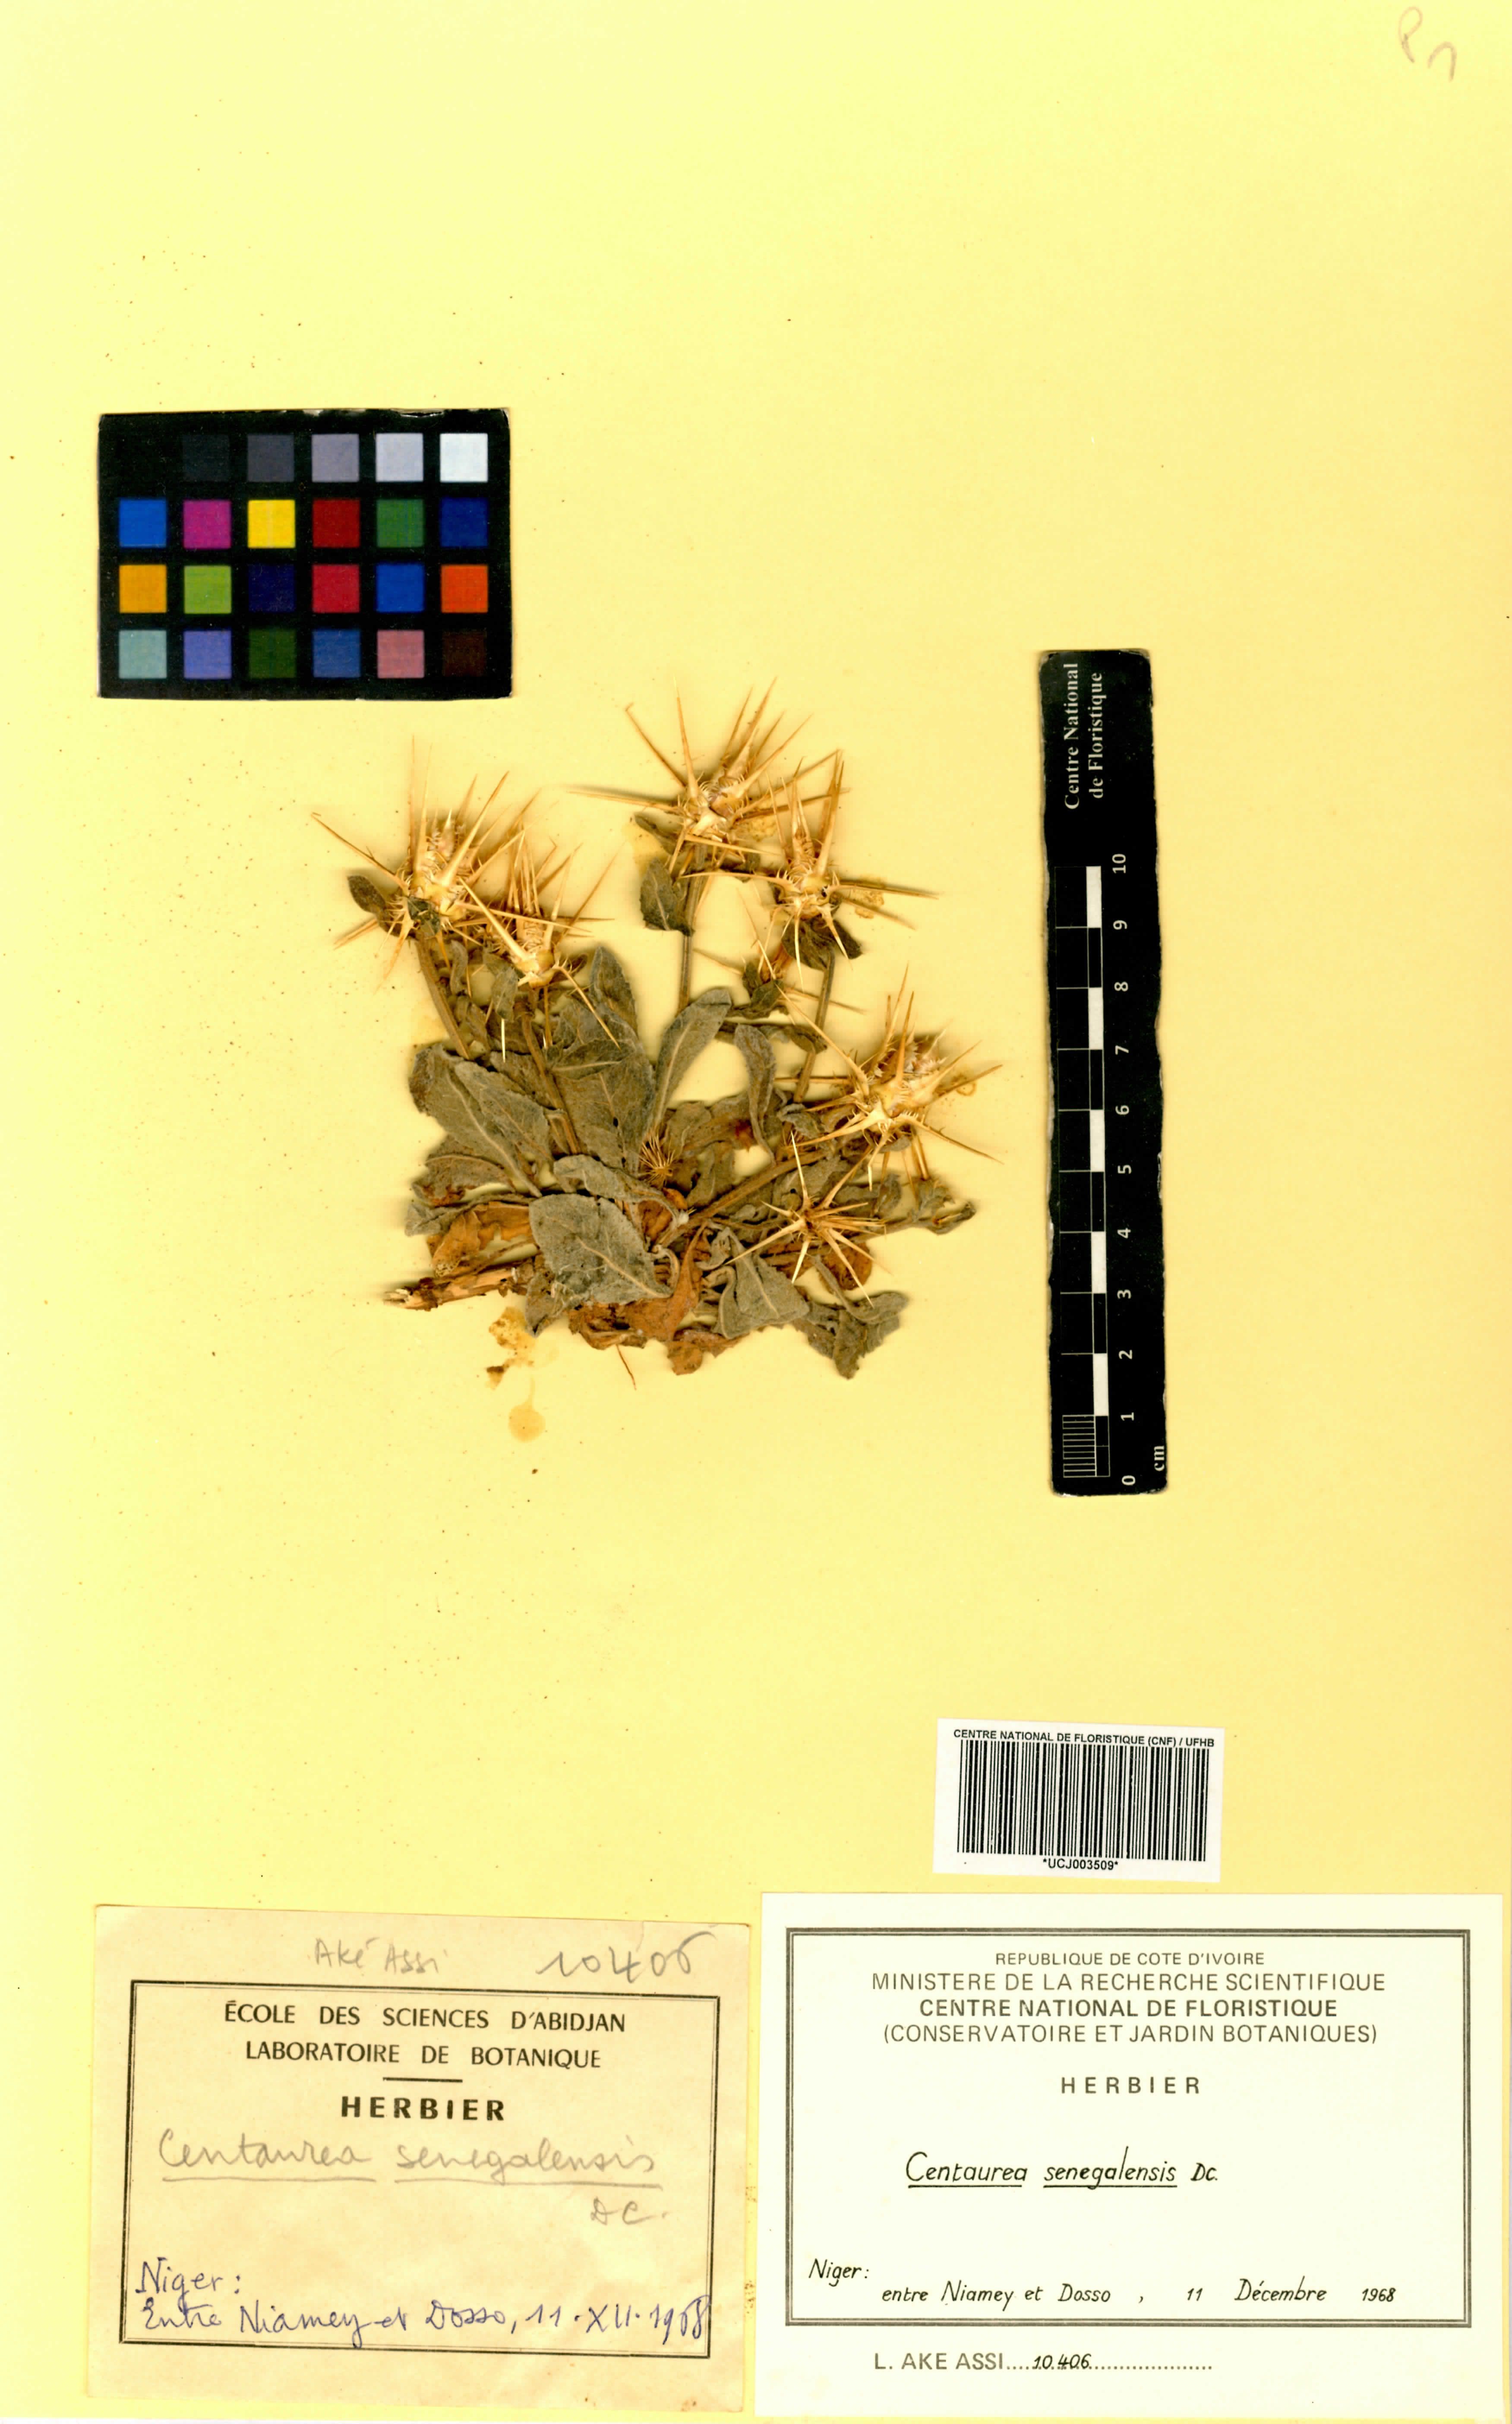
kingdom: Plantae
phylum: Tracheophyta
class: Magnoliopsida
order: Asterales
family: Asteraceae
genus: Centaurea
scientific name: Centaurea senegalensis
